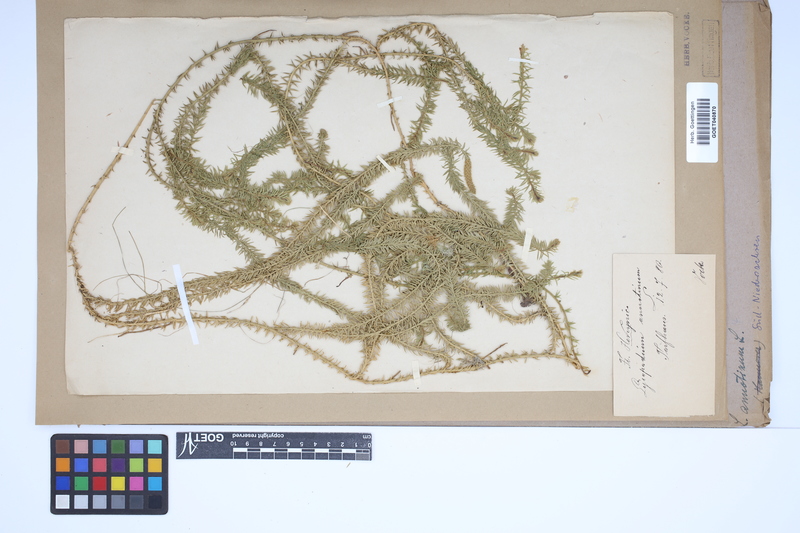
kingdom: Plantae
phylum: Tracheophyta
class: Lycopodiopsida
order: Lycopodiales
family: Lycopodiaceae
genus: Spinulum
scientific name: Spinulum annotinum
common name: Interrupted club-moss
